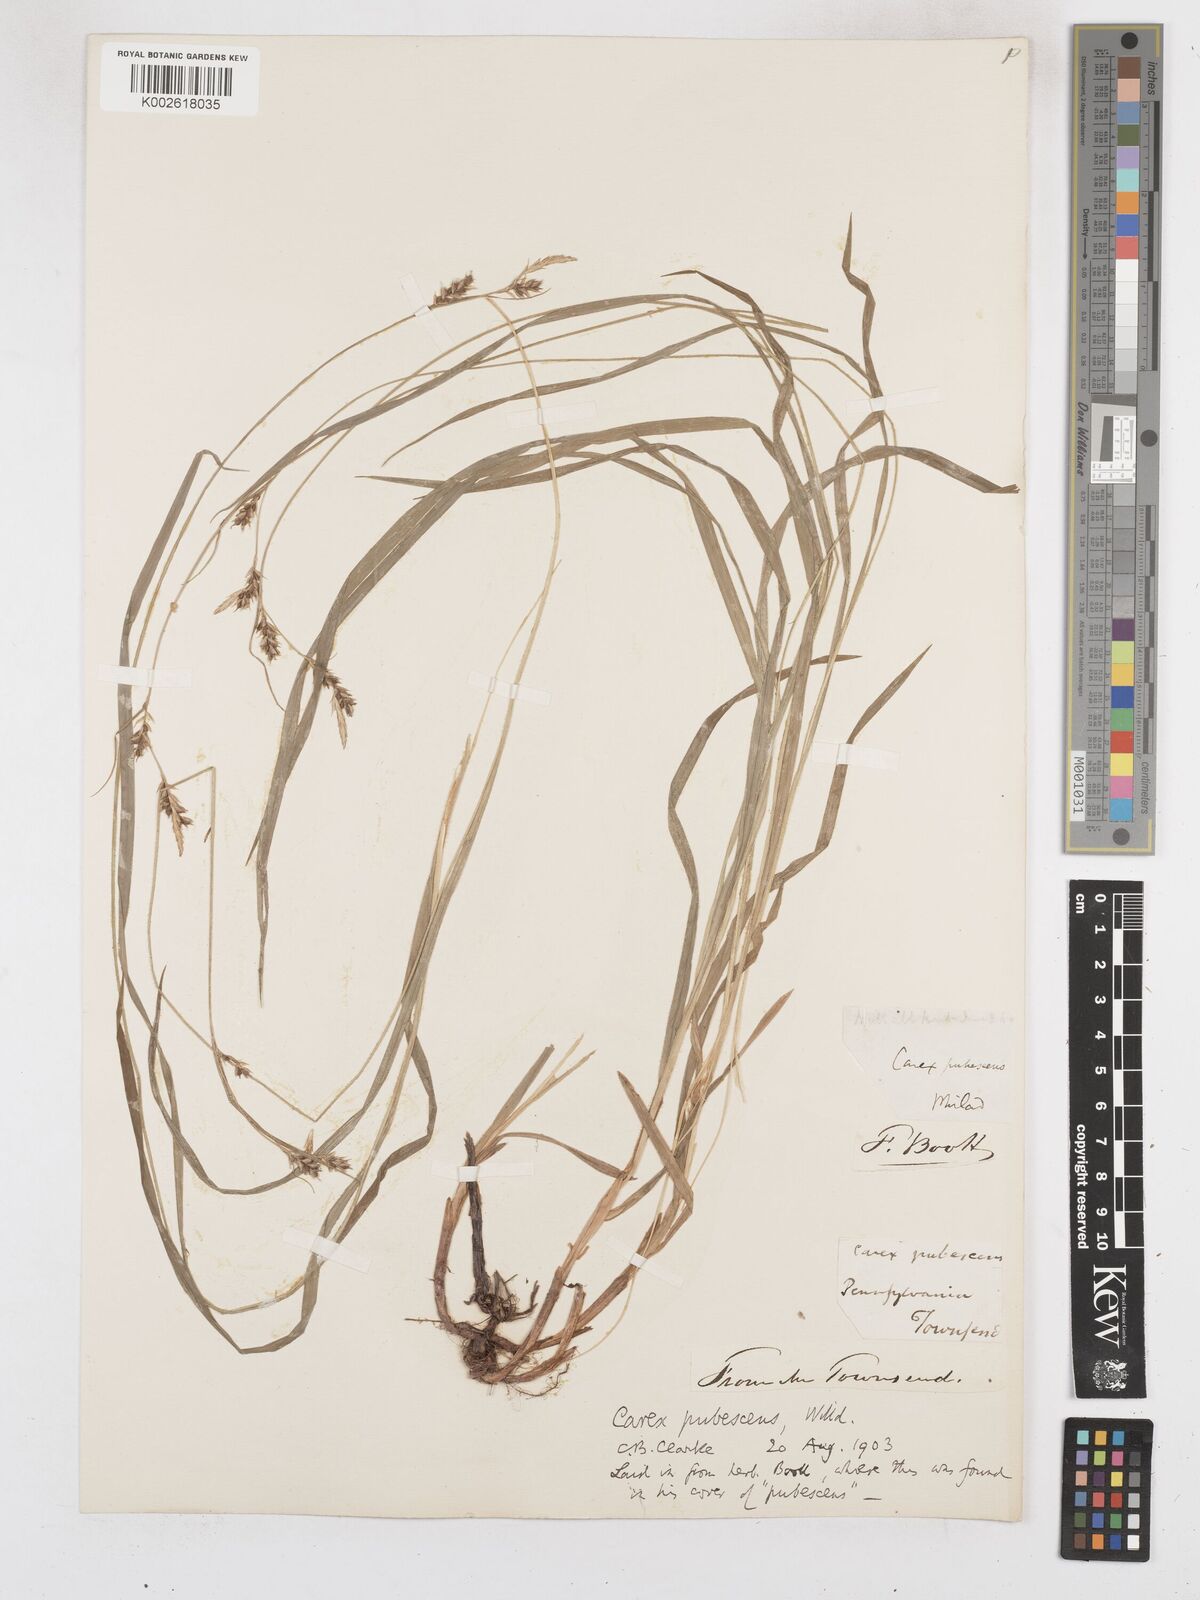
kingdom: Plantae
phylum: Tracheophyta
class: Liliopsida
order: Poales
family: Cyperaceae
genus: Carex
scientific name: Carex hirtifolia
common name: Hairy sedge
